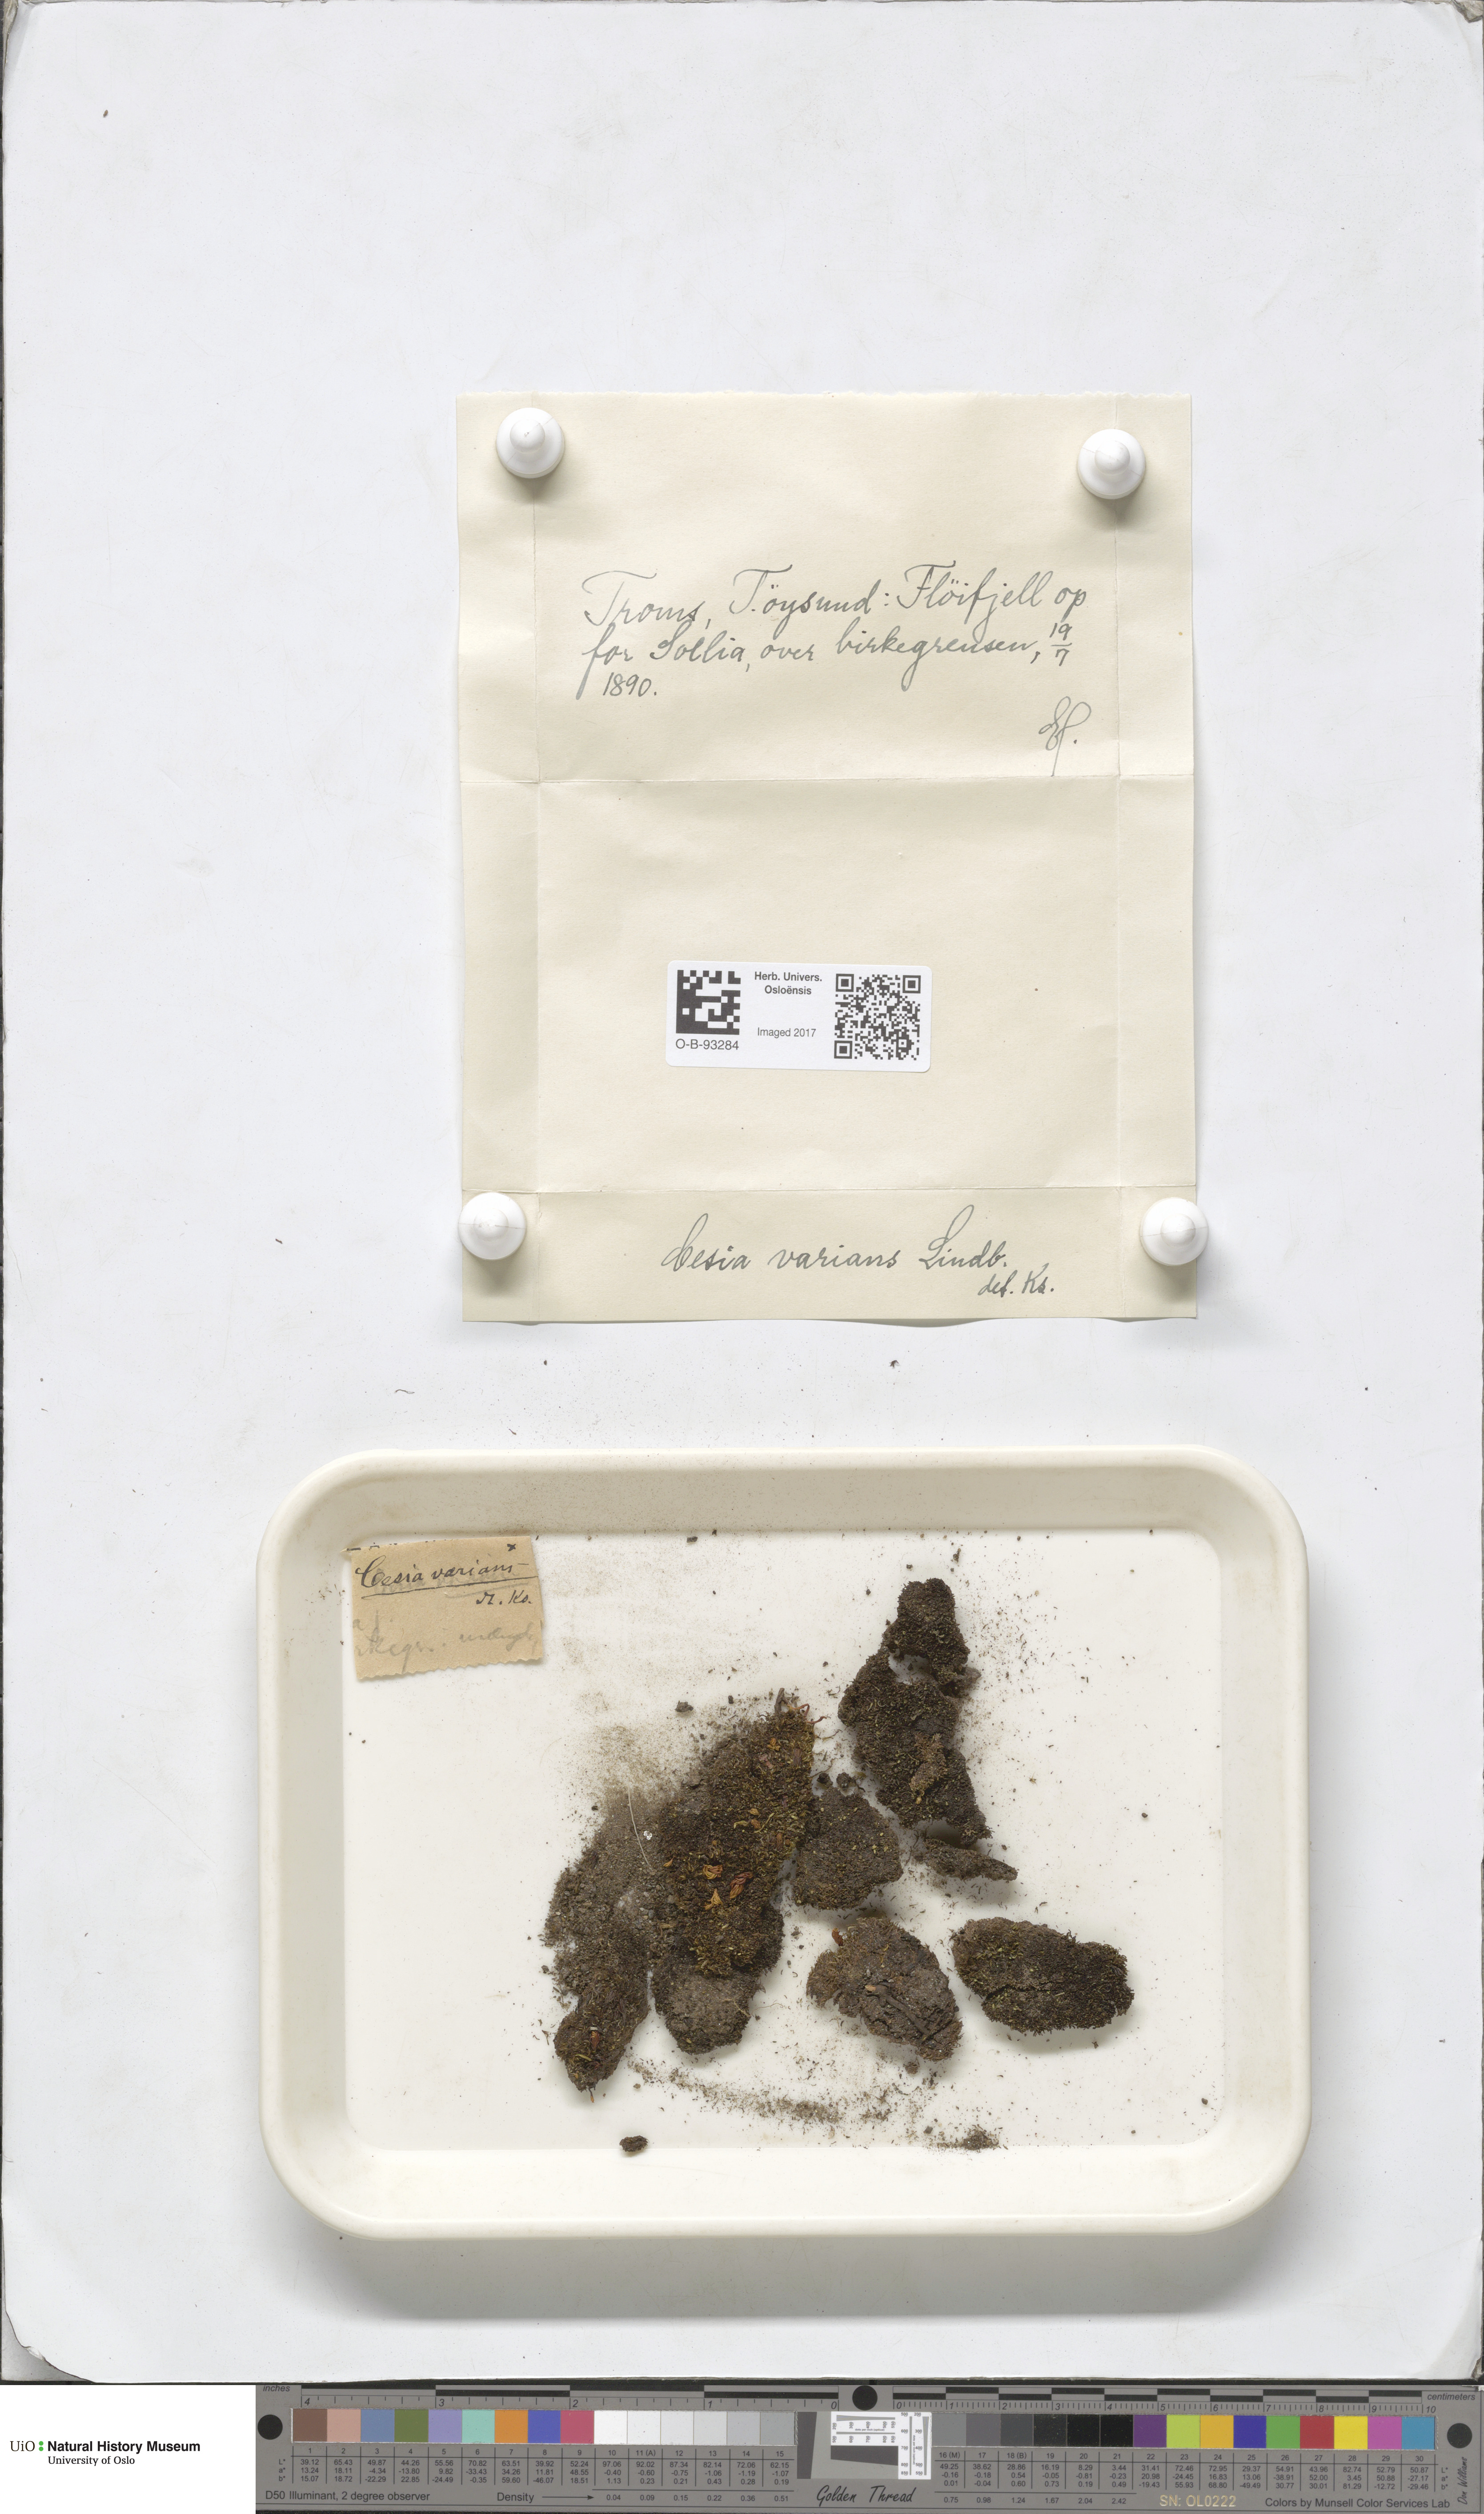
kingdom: Plantae
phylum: Marchantiophyta
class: Jungermanniopsida
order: Jungermanniales
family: Gymnomitriaceae
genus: Gymnomitrion
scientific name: Gymnomitrion brevissimum
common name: Snow rustwort
